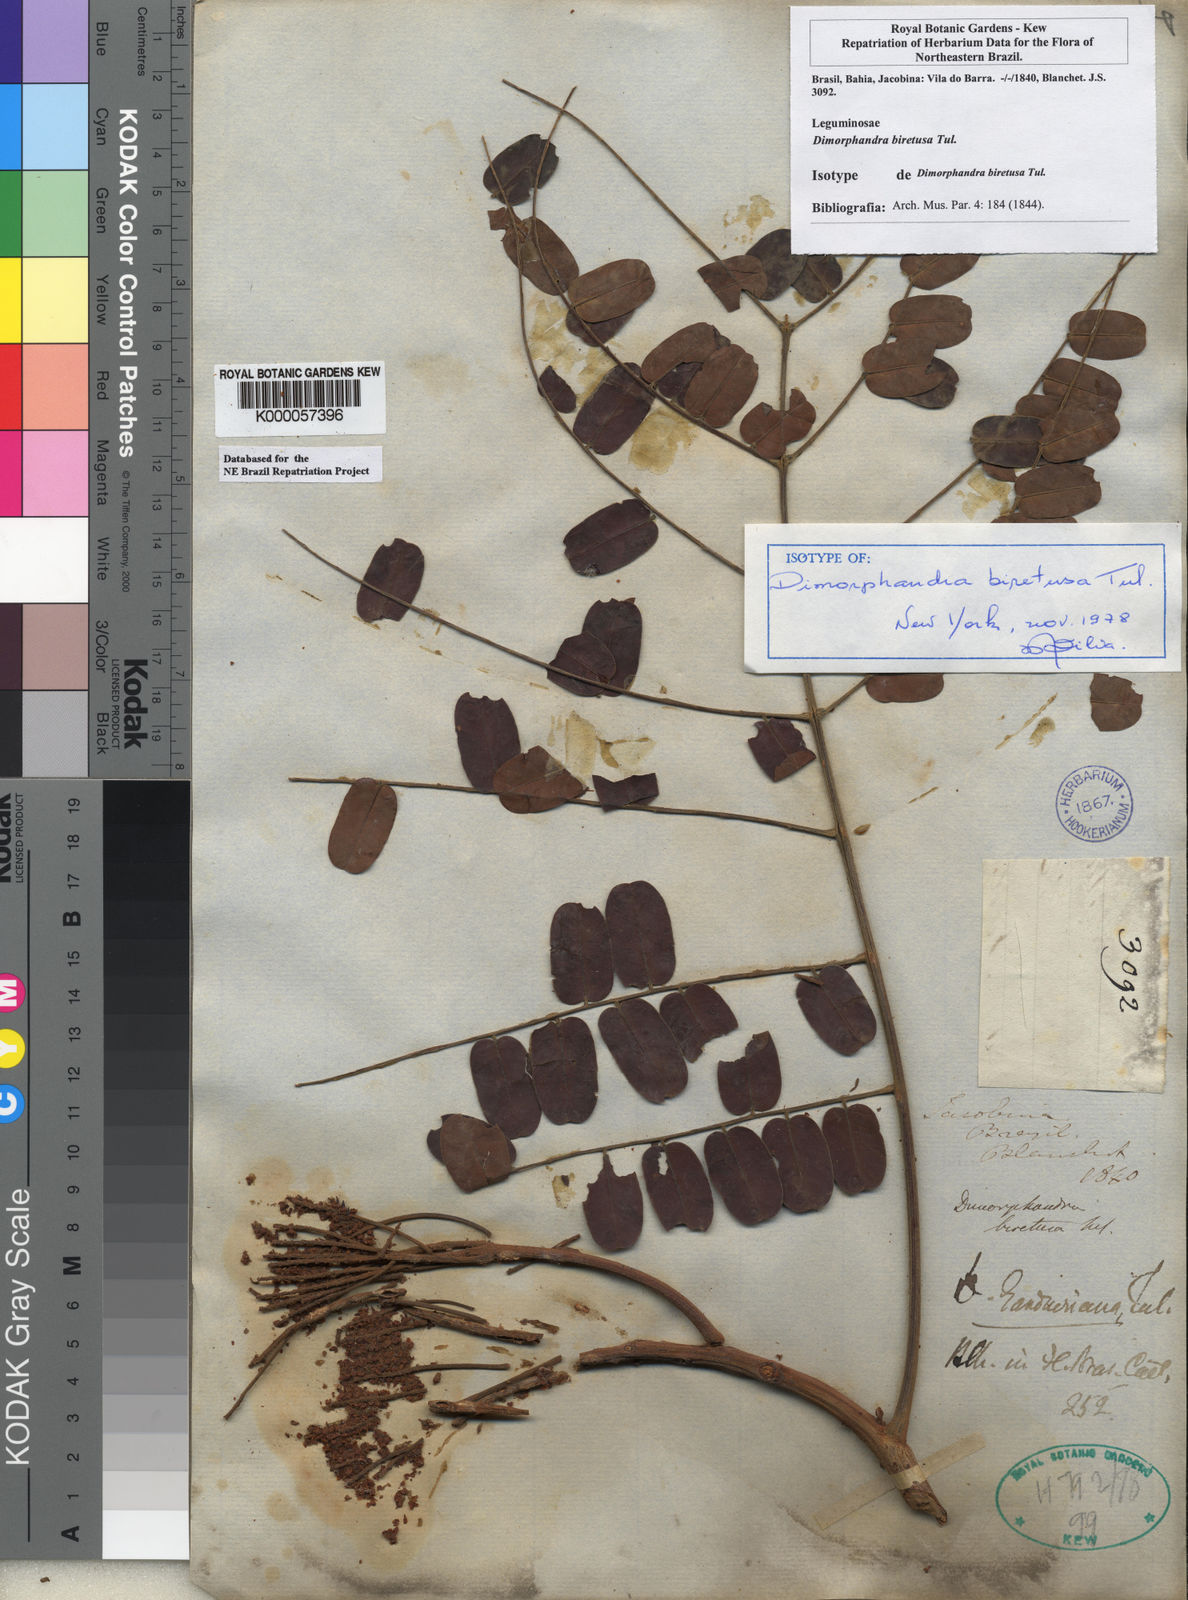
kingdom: Plantae
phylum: Tracheophyta
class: Magnoliopsida
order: Fabales
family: Fabaceae
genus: Dimorphandra
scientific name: Dimorphandra gardneriana
